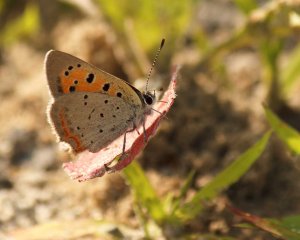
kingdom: Animalia
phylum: Arthropoda
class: Insecta
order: Lepidoptera
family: Lycaenidae
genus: Lycaena
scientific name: Lycaena phlaeas
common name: American Copper
